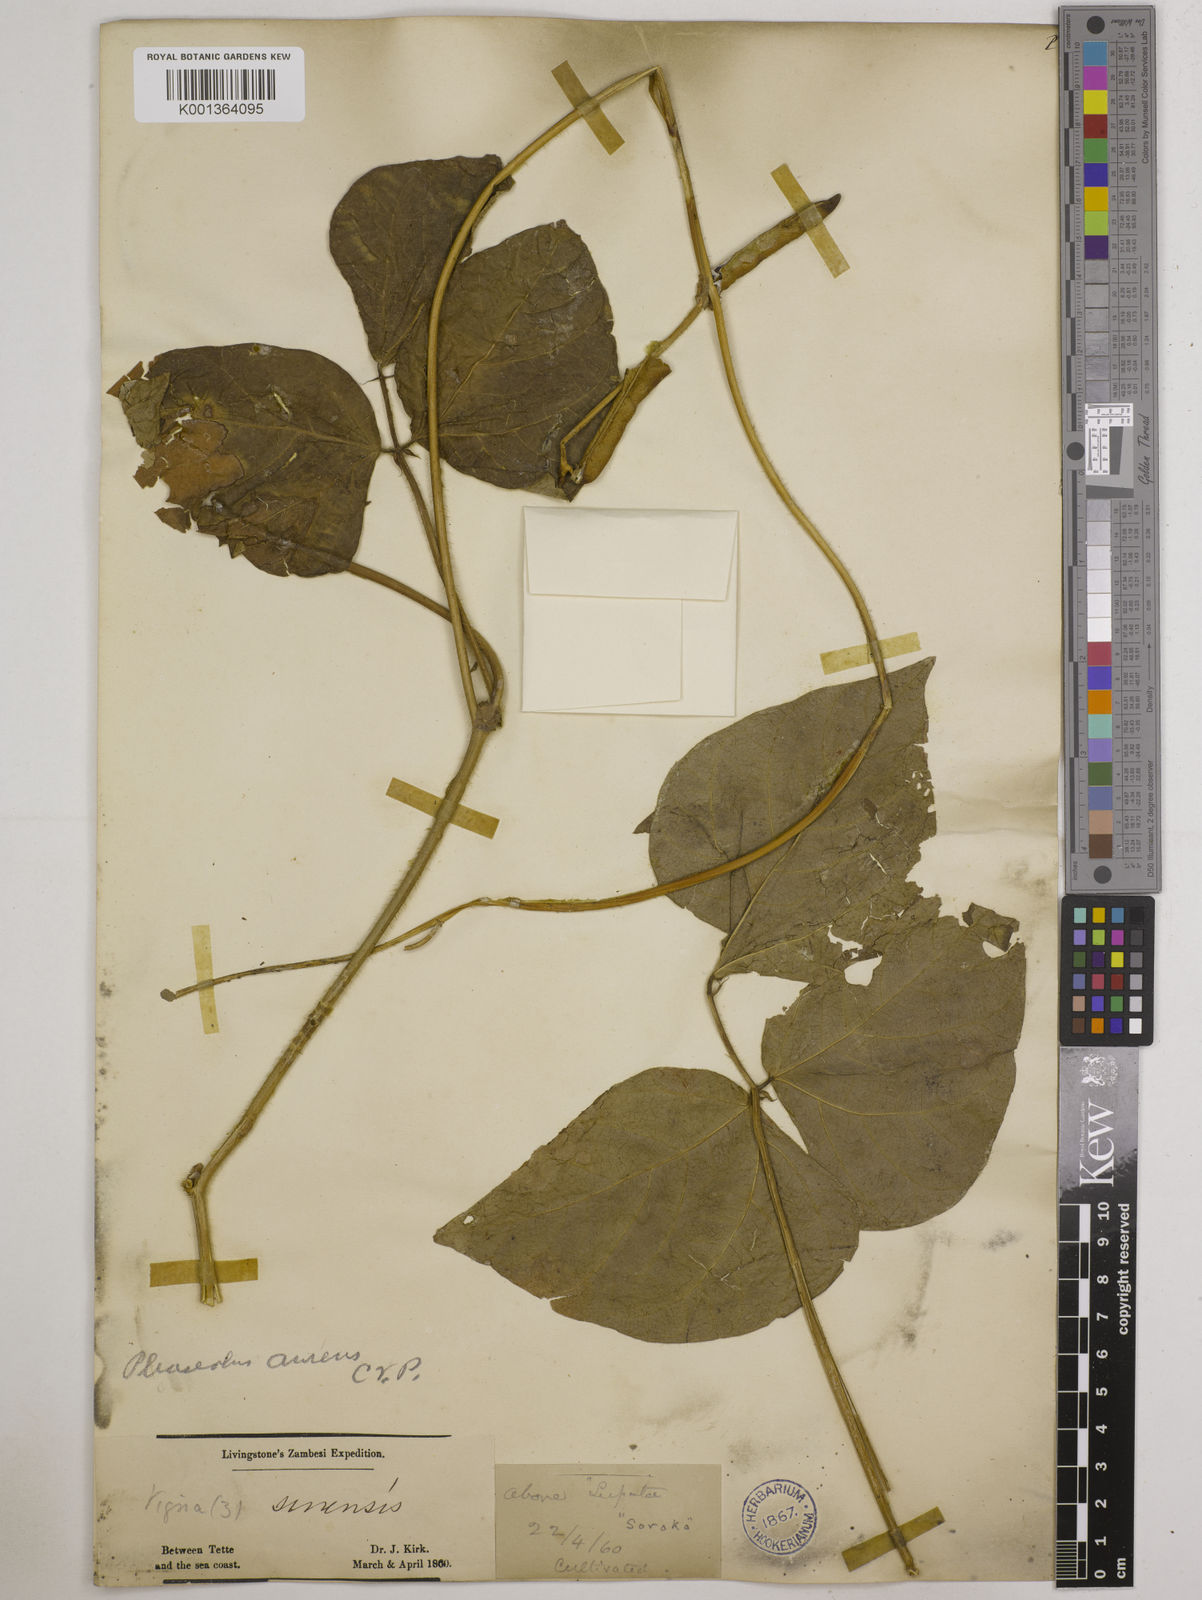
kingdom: Plantae
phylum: Tracheophyta
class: Magnoliopsida
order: Fabales
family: Fabaceae
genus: Vigna
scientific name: Vigna radiata
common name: Mung-bean
